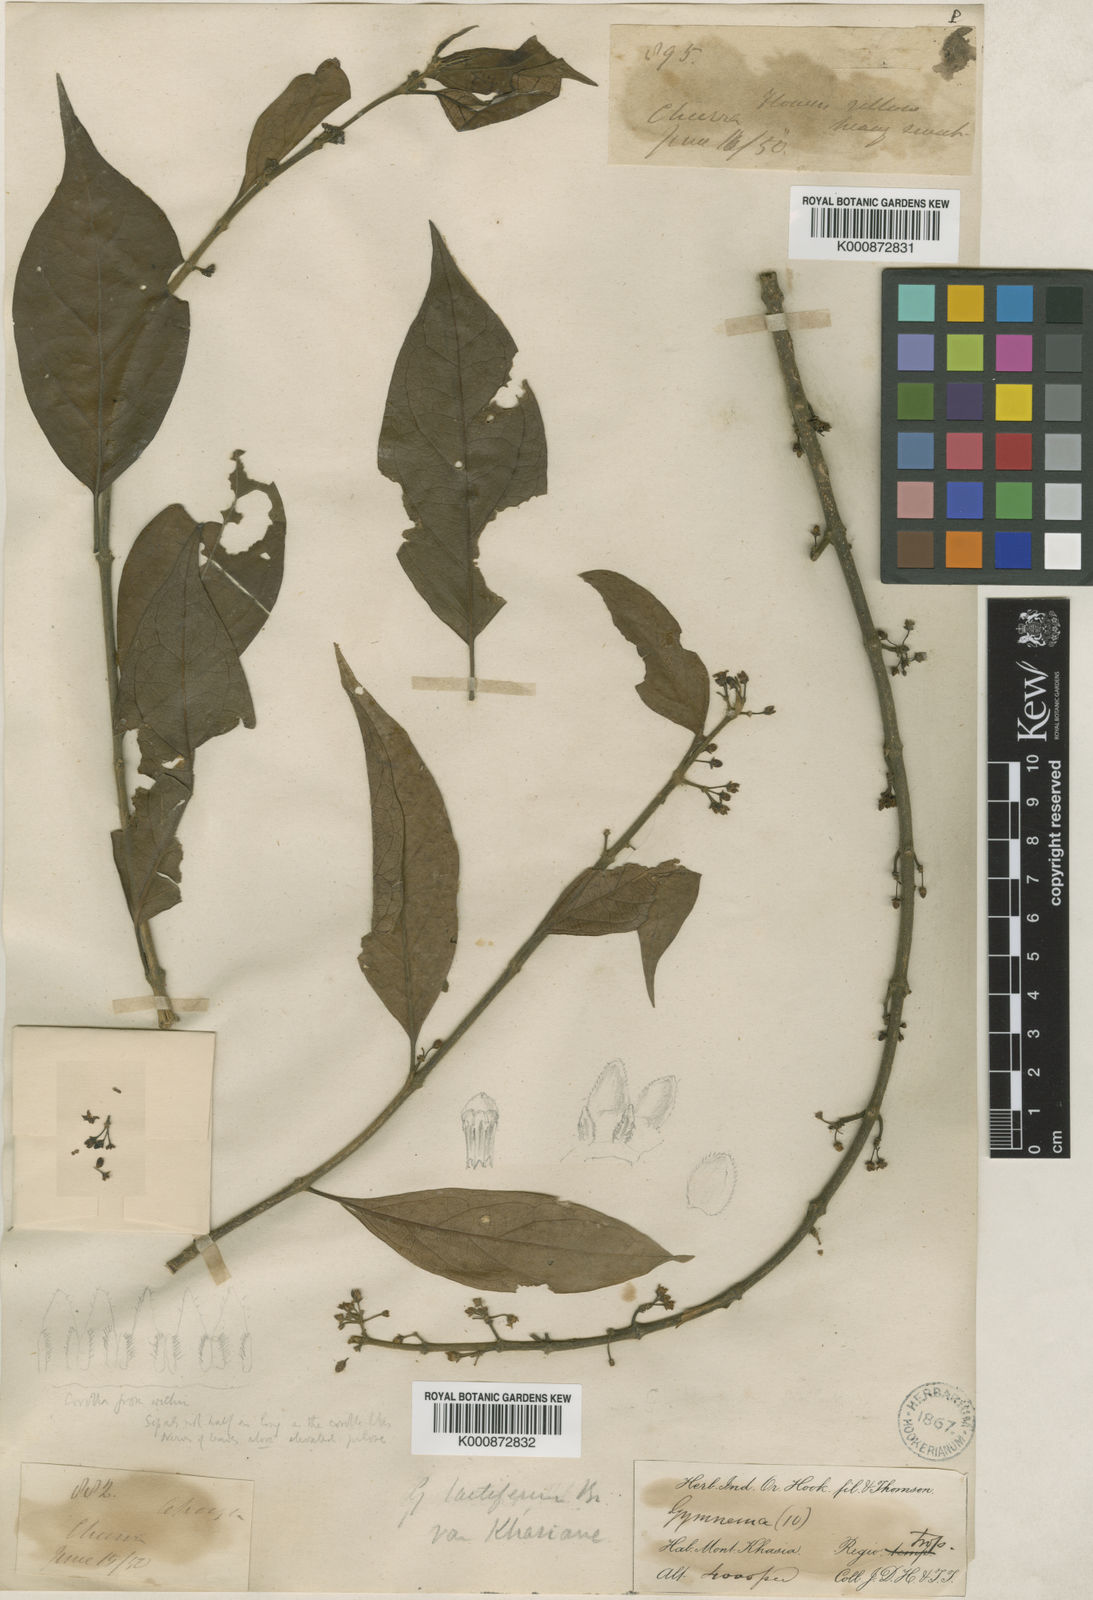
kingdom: Plantae
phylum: Tracheophyta
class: Magnoliopsida
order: Gentianales
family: Apocynaceae
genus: Gymnema
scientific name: Gymnema
